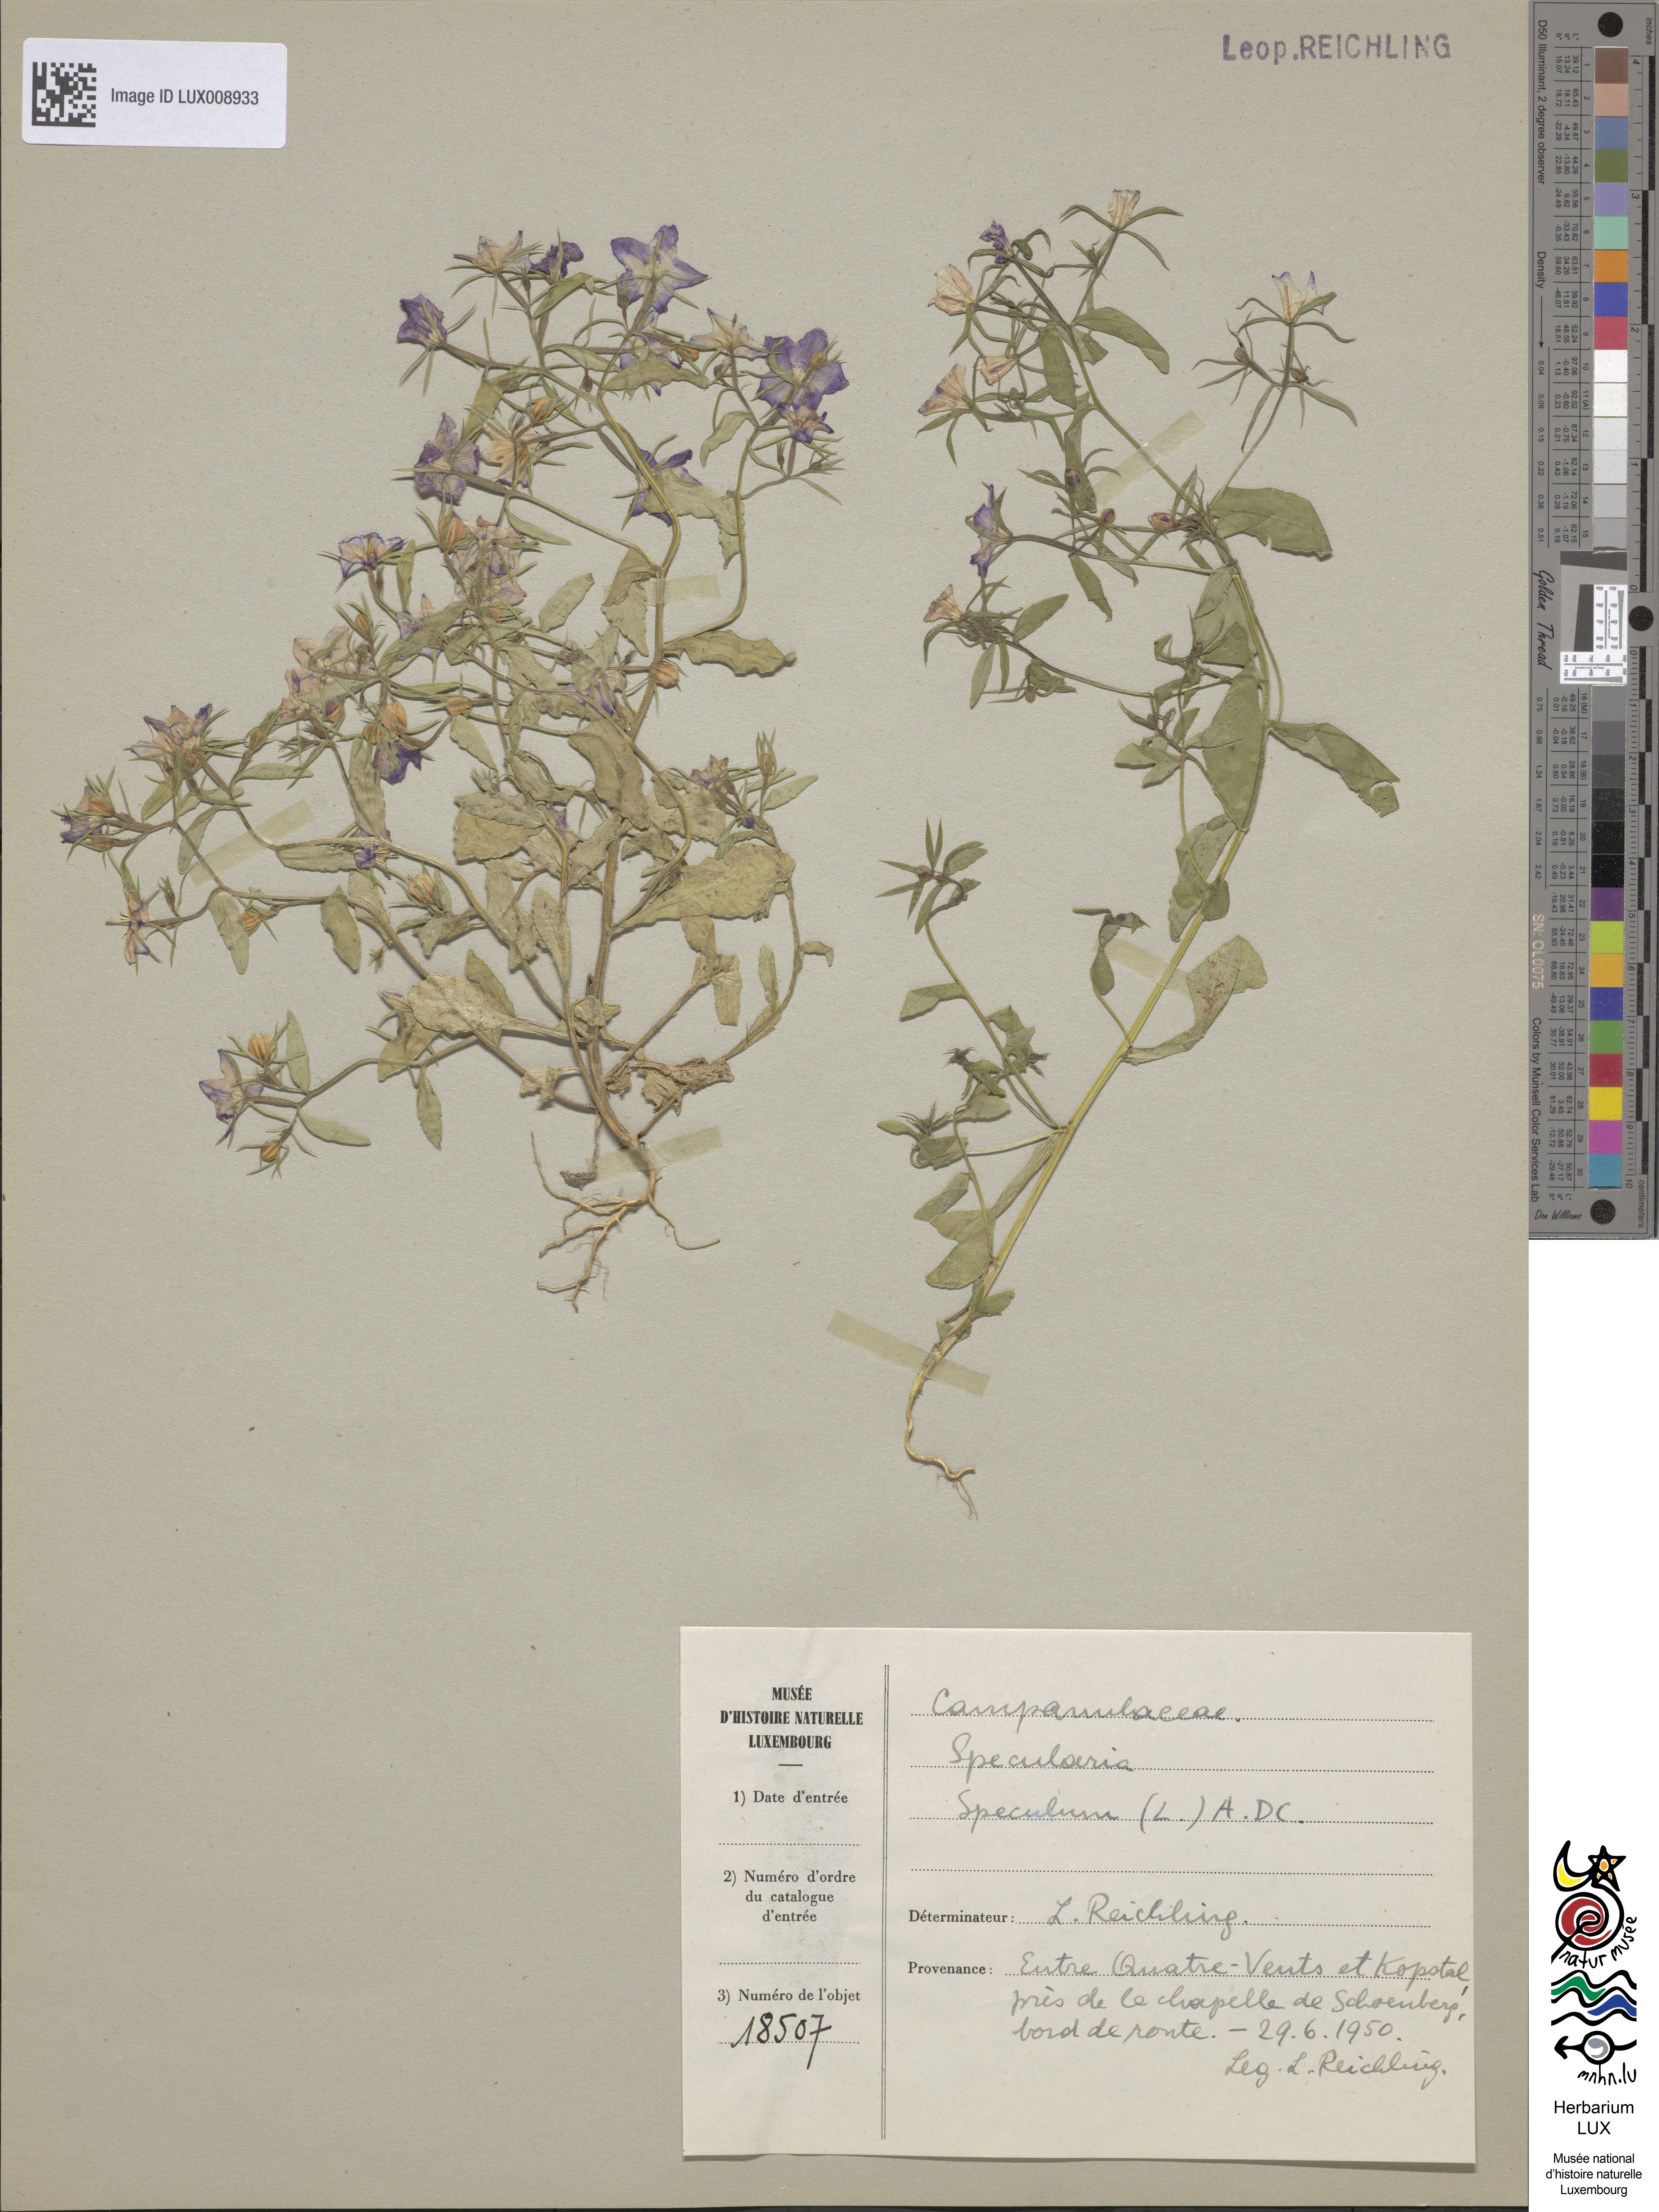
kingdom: Plantae
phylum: Tracheophyta
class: Magnoliopsida
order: Asterales
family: Campanulaceae
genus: Legousia
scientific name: Legousia speculum-veneris
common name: Large venus's-looking-glass
